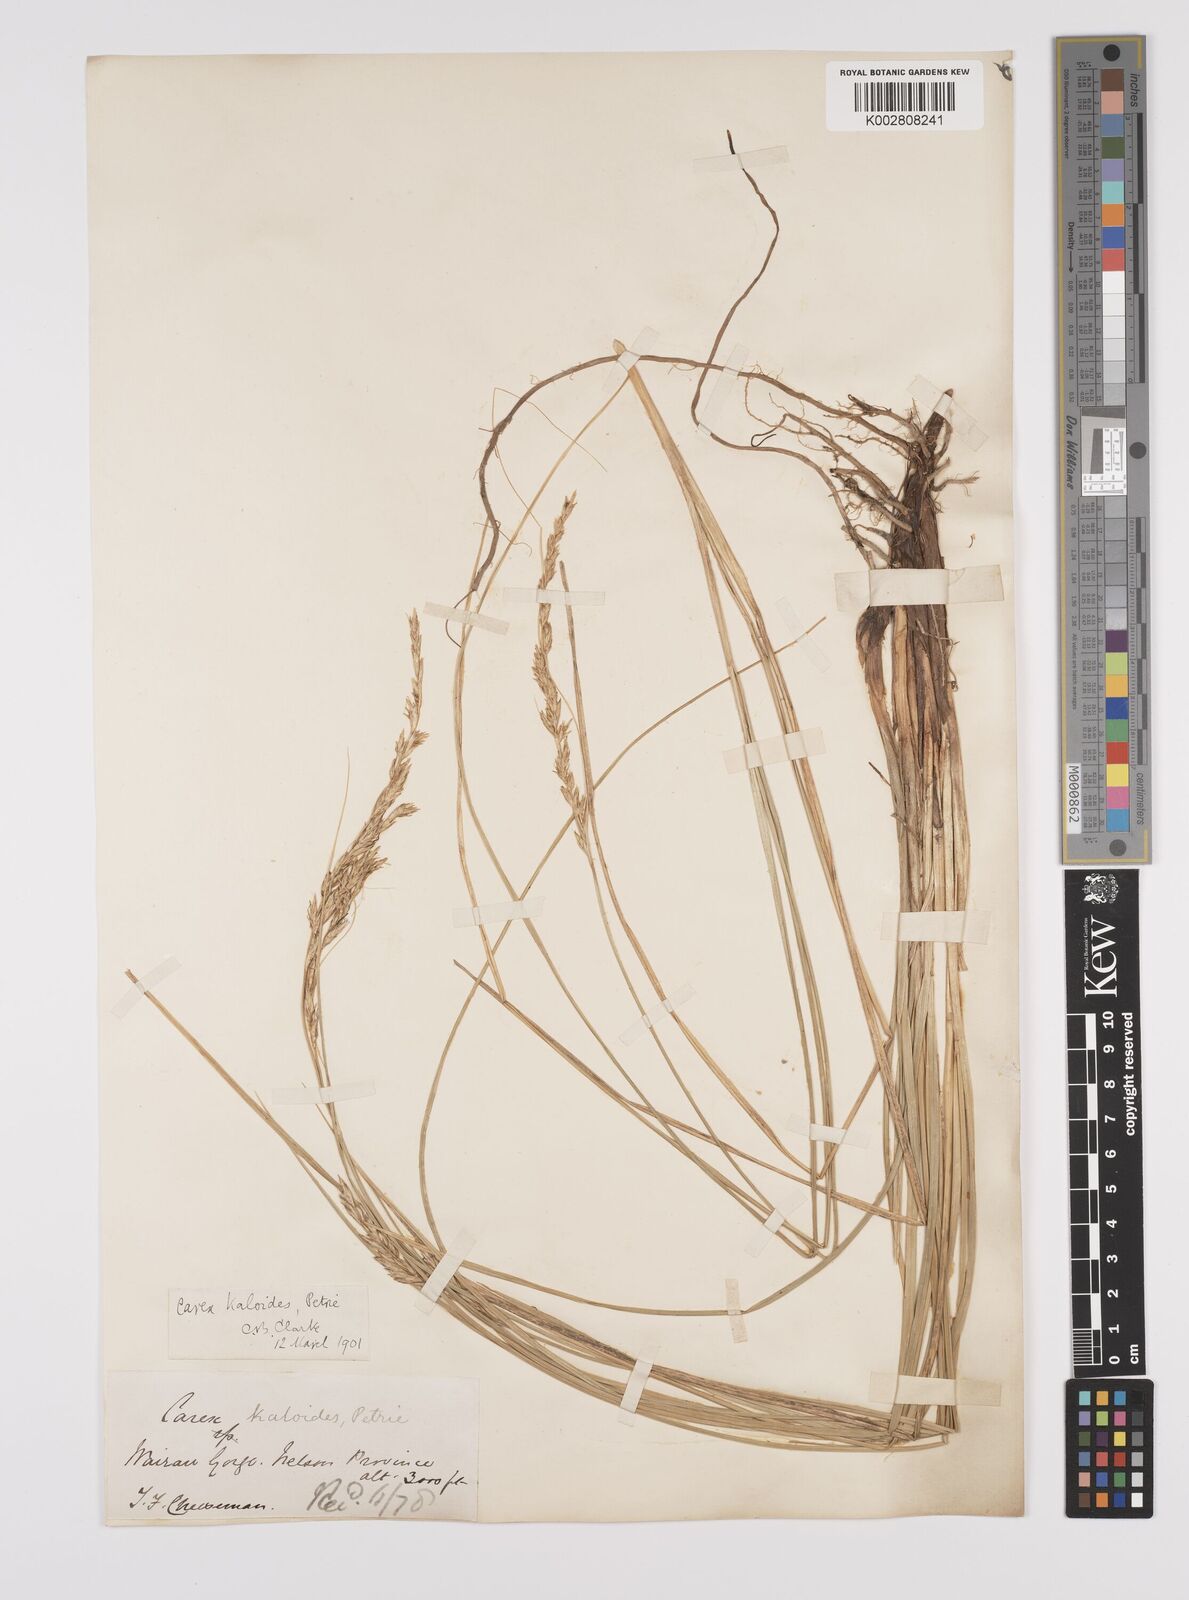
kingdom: Plantae
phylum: Tracheophyta
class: Liliopsida
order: Poales
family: Cyperaceae
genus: Carex
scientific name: Carex kaloides
